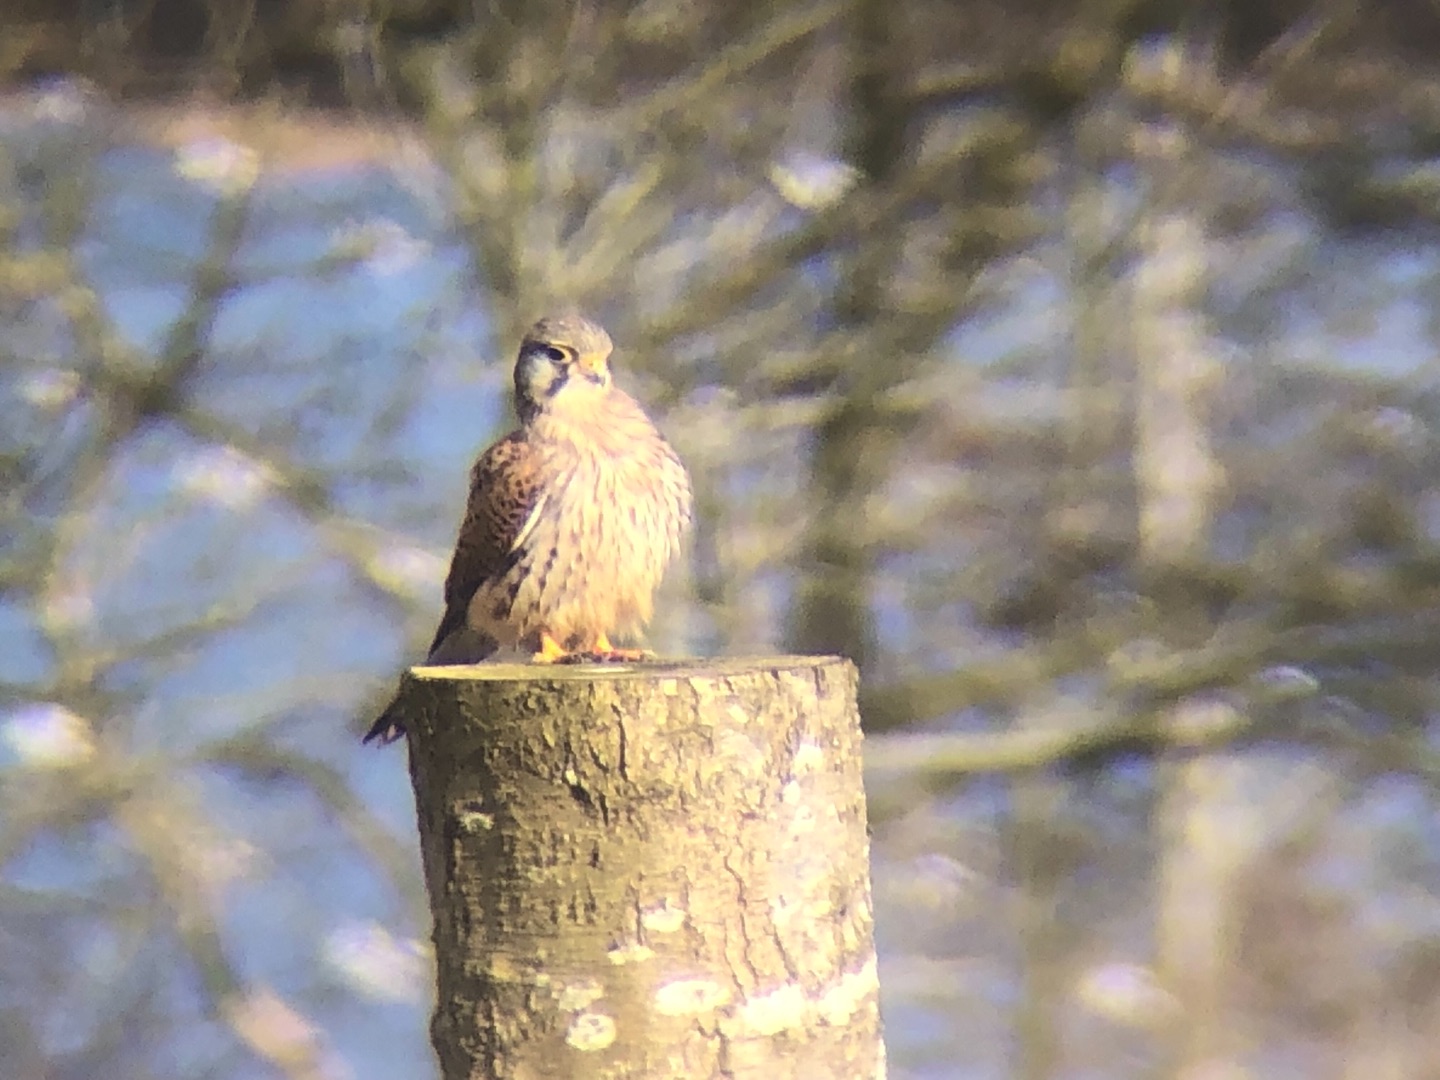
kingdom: Animalia
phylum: Chordata
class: Aves
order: Falconiformes
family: Falconidae
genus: Falco
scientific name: Falco tinnunculus
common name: Tårnfalk
